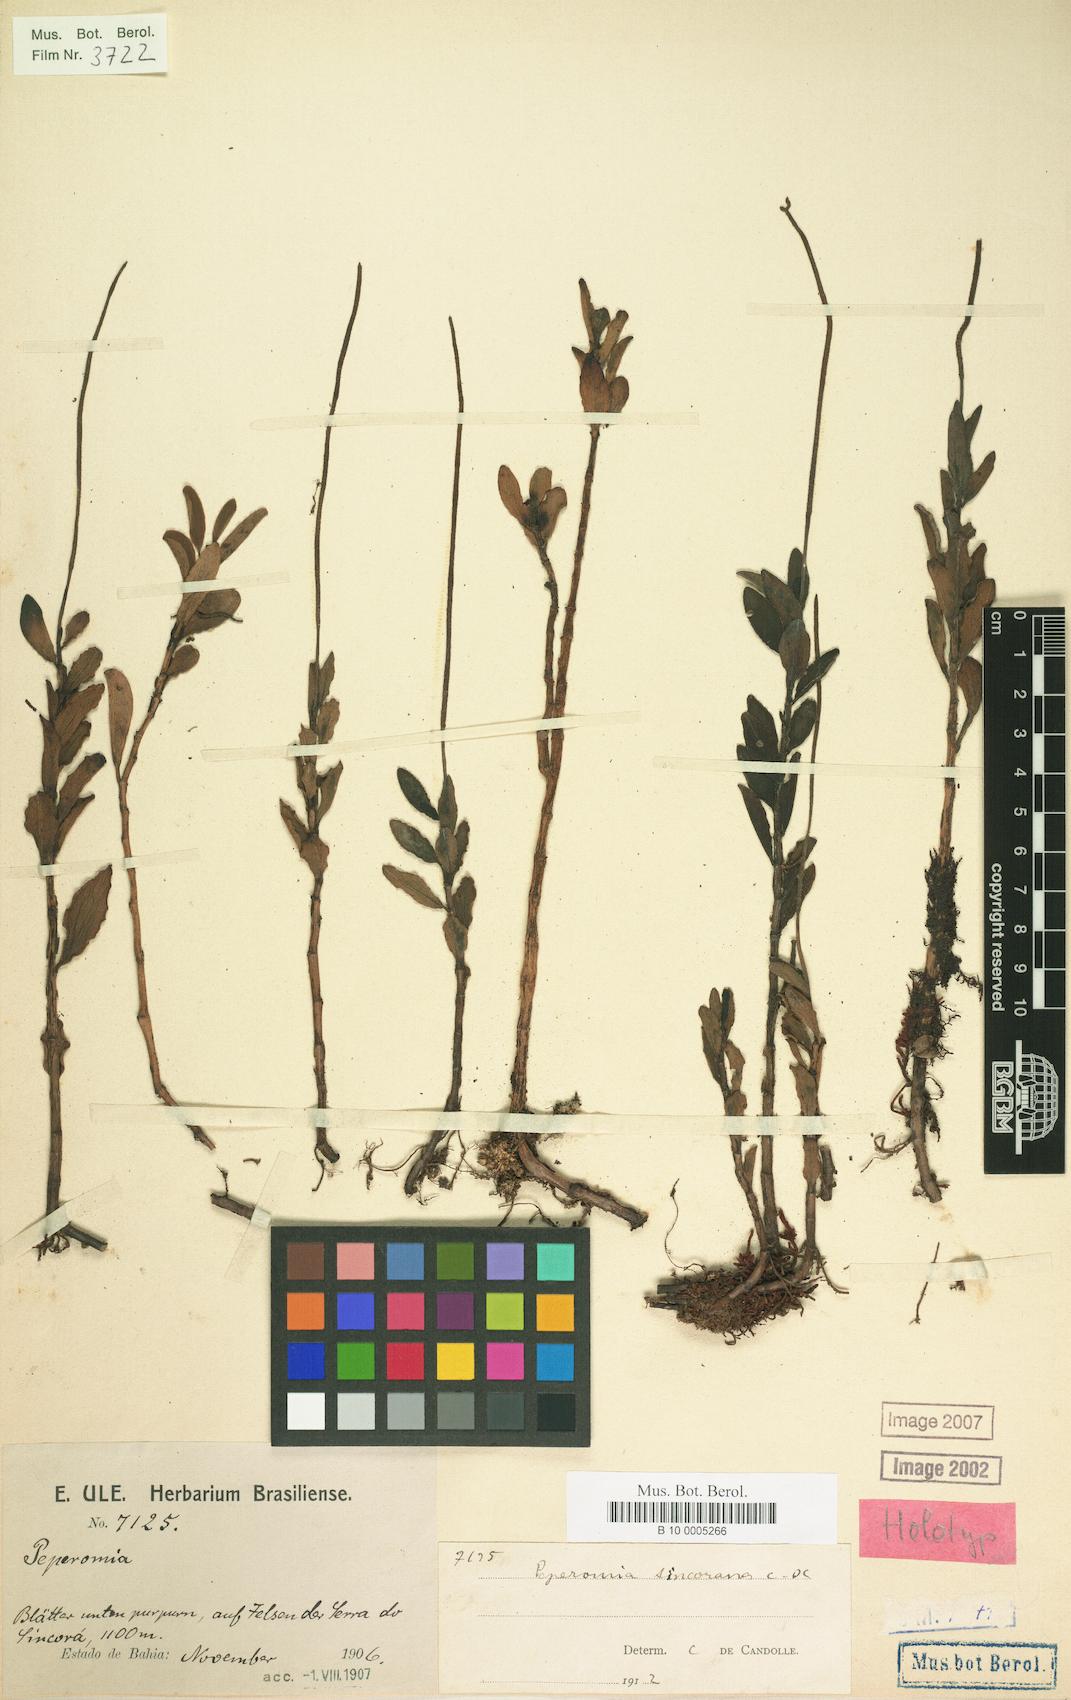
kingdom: Plantae
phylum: Tracheophyta
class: Magnoliopsida
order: Piperales
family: Piperaceae
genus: Peperomia
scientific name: Peperomia sincorana
